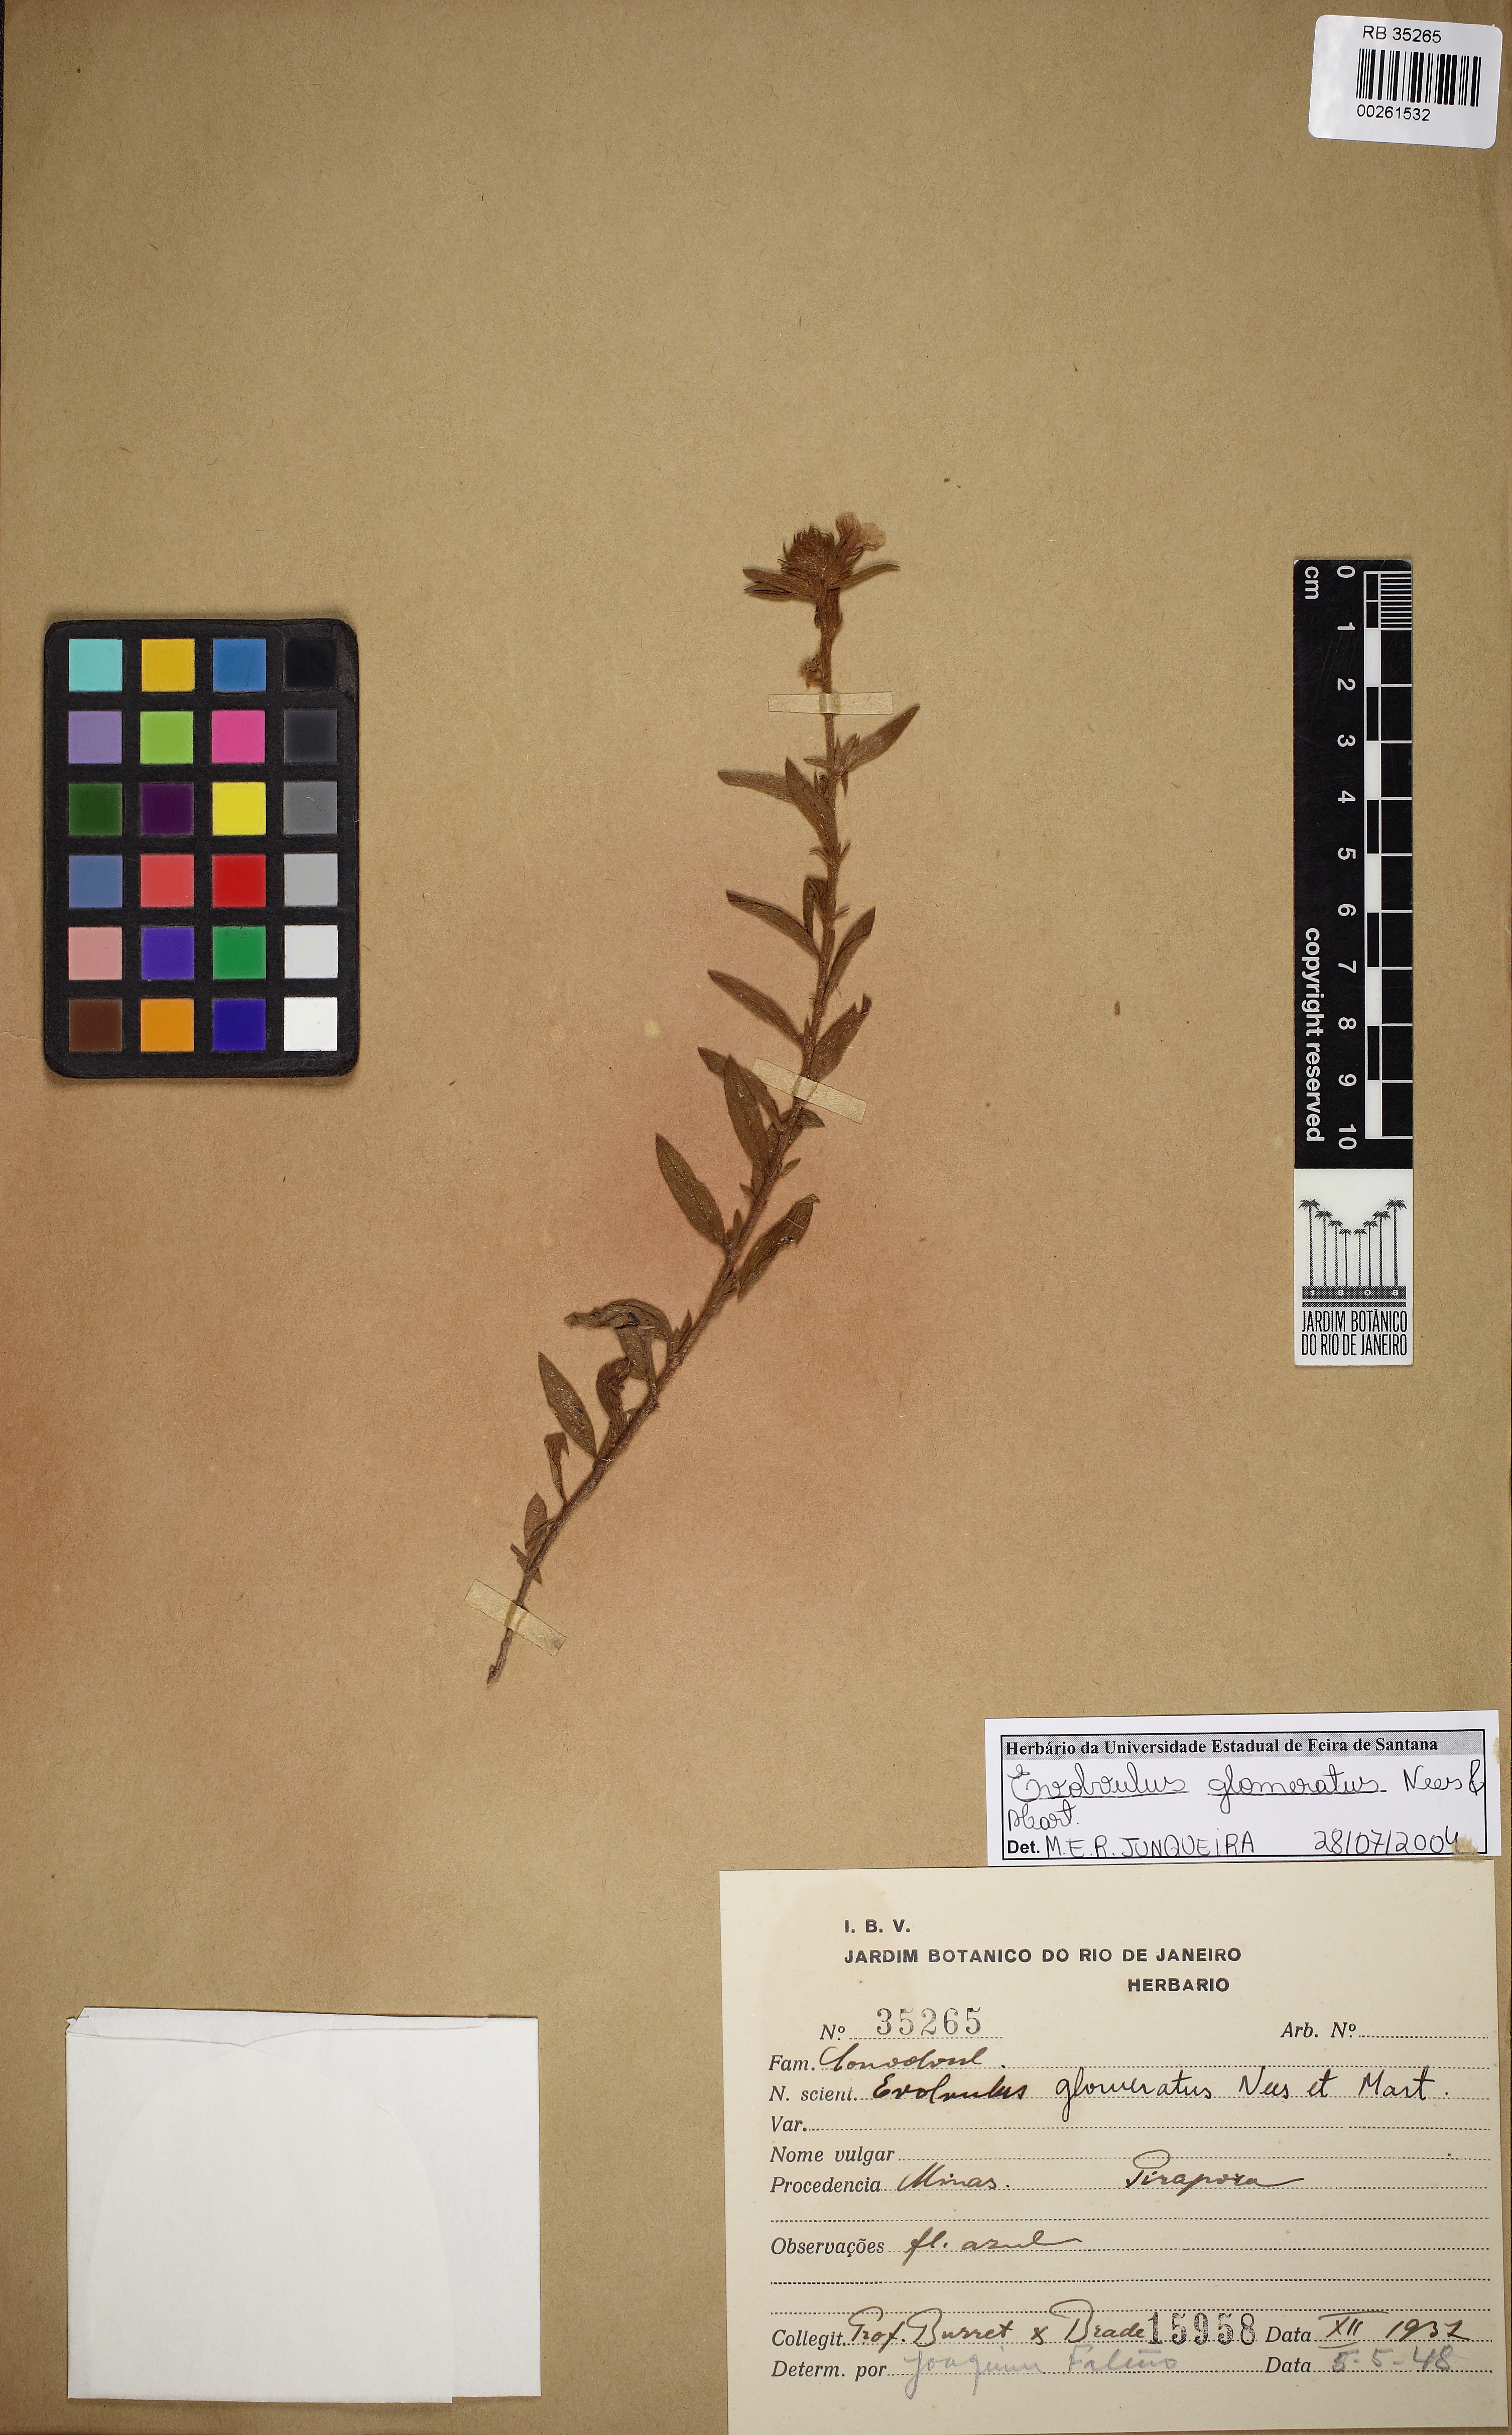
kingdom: Plantae
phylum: Tracheophyta
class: Magnoliopsida
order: Solanales
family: Convolvulaceae
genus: Evolvulus
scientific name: Evolvulus glomeratus
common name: Brazilian dwarf morning-glory
